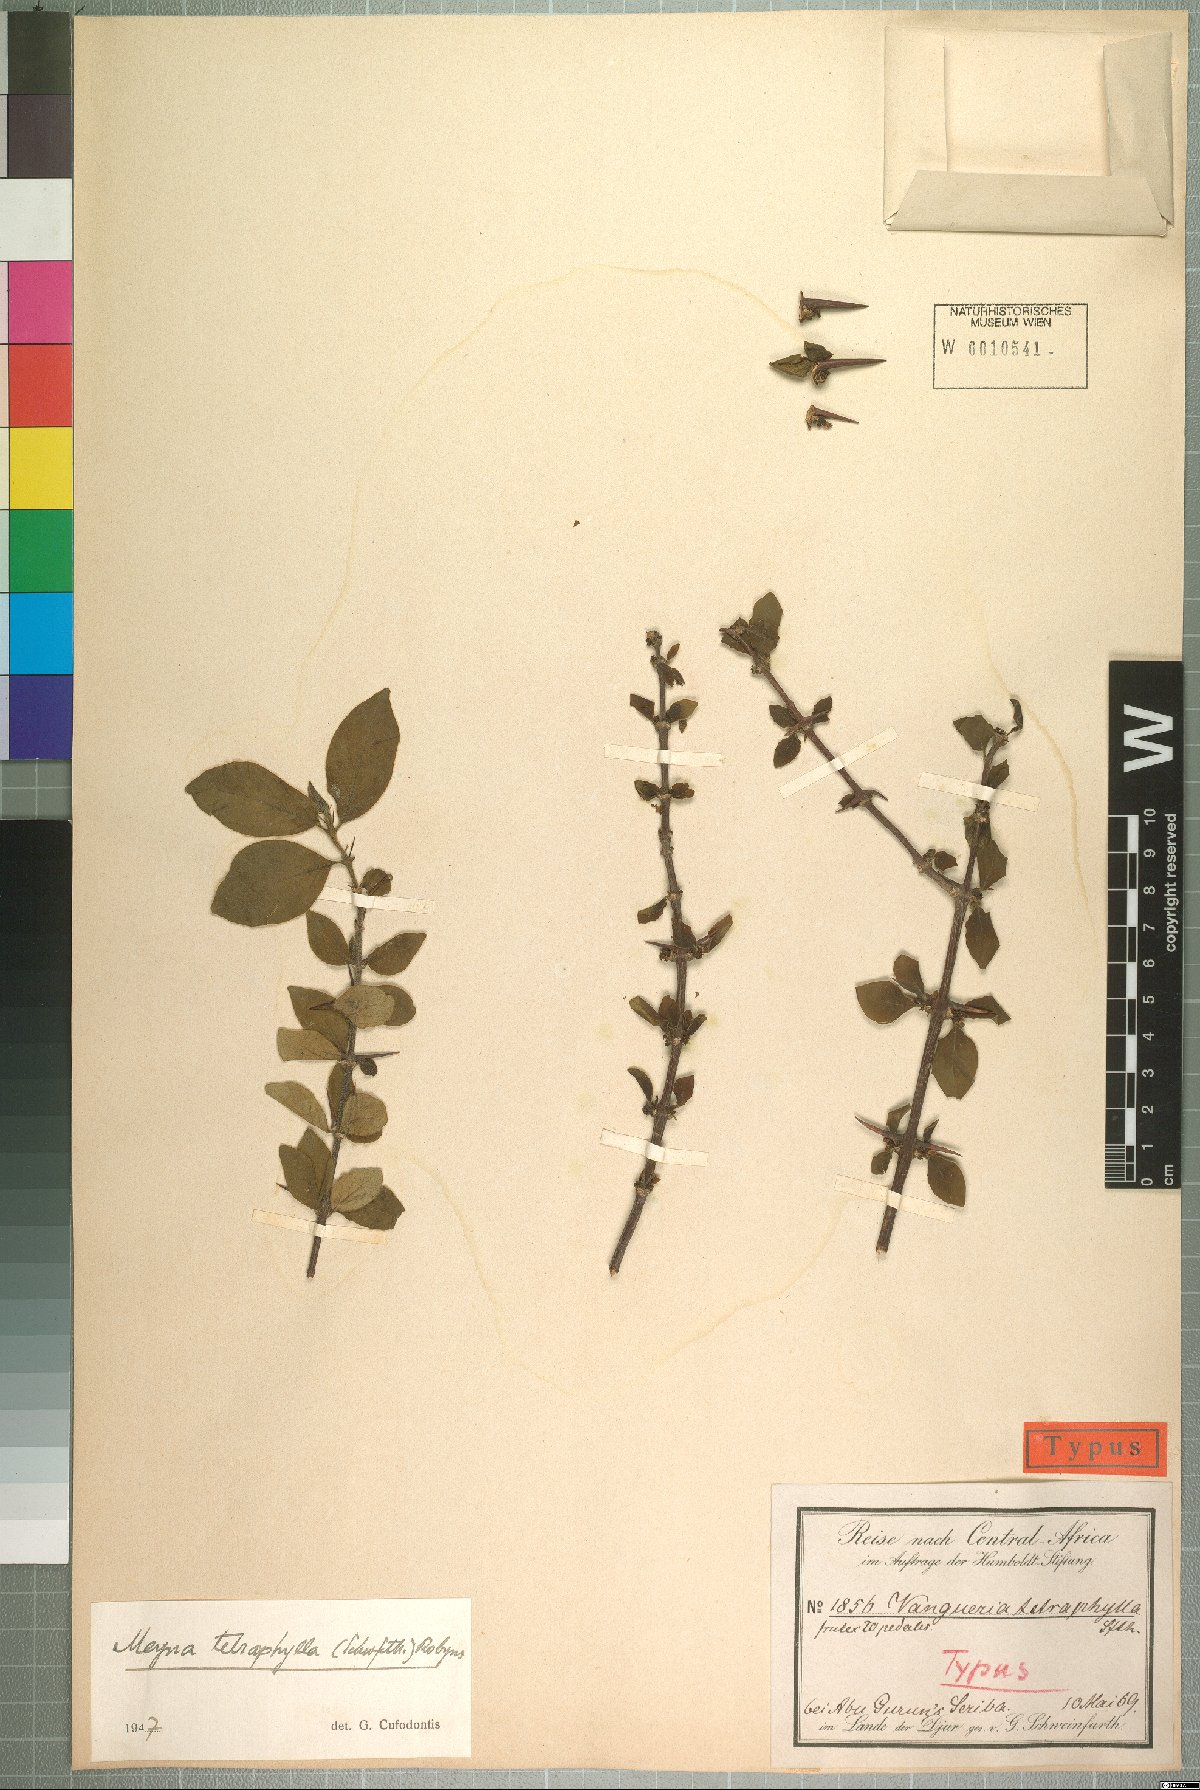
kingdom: Plantae
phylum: Tracheophyta
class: Magnoliopsida
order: Gentianales
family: Rubiaceae
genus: Meyna
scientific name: Meyna tetraphylla
